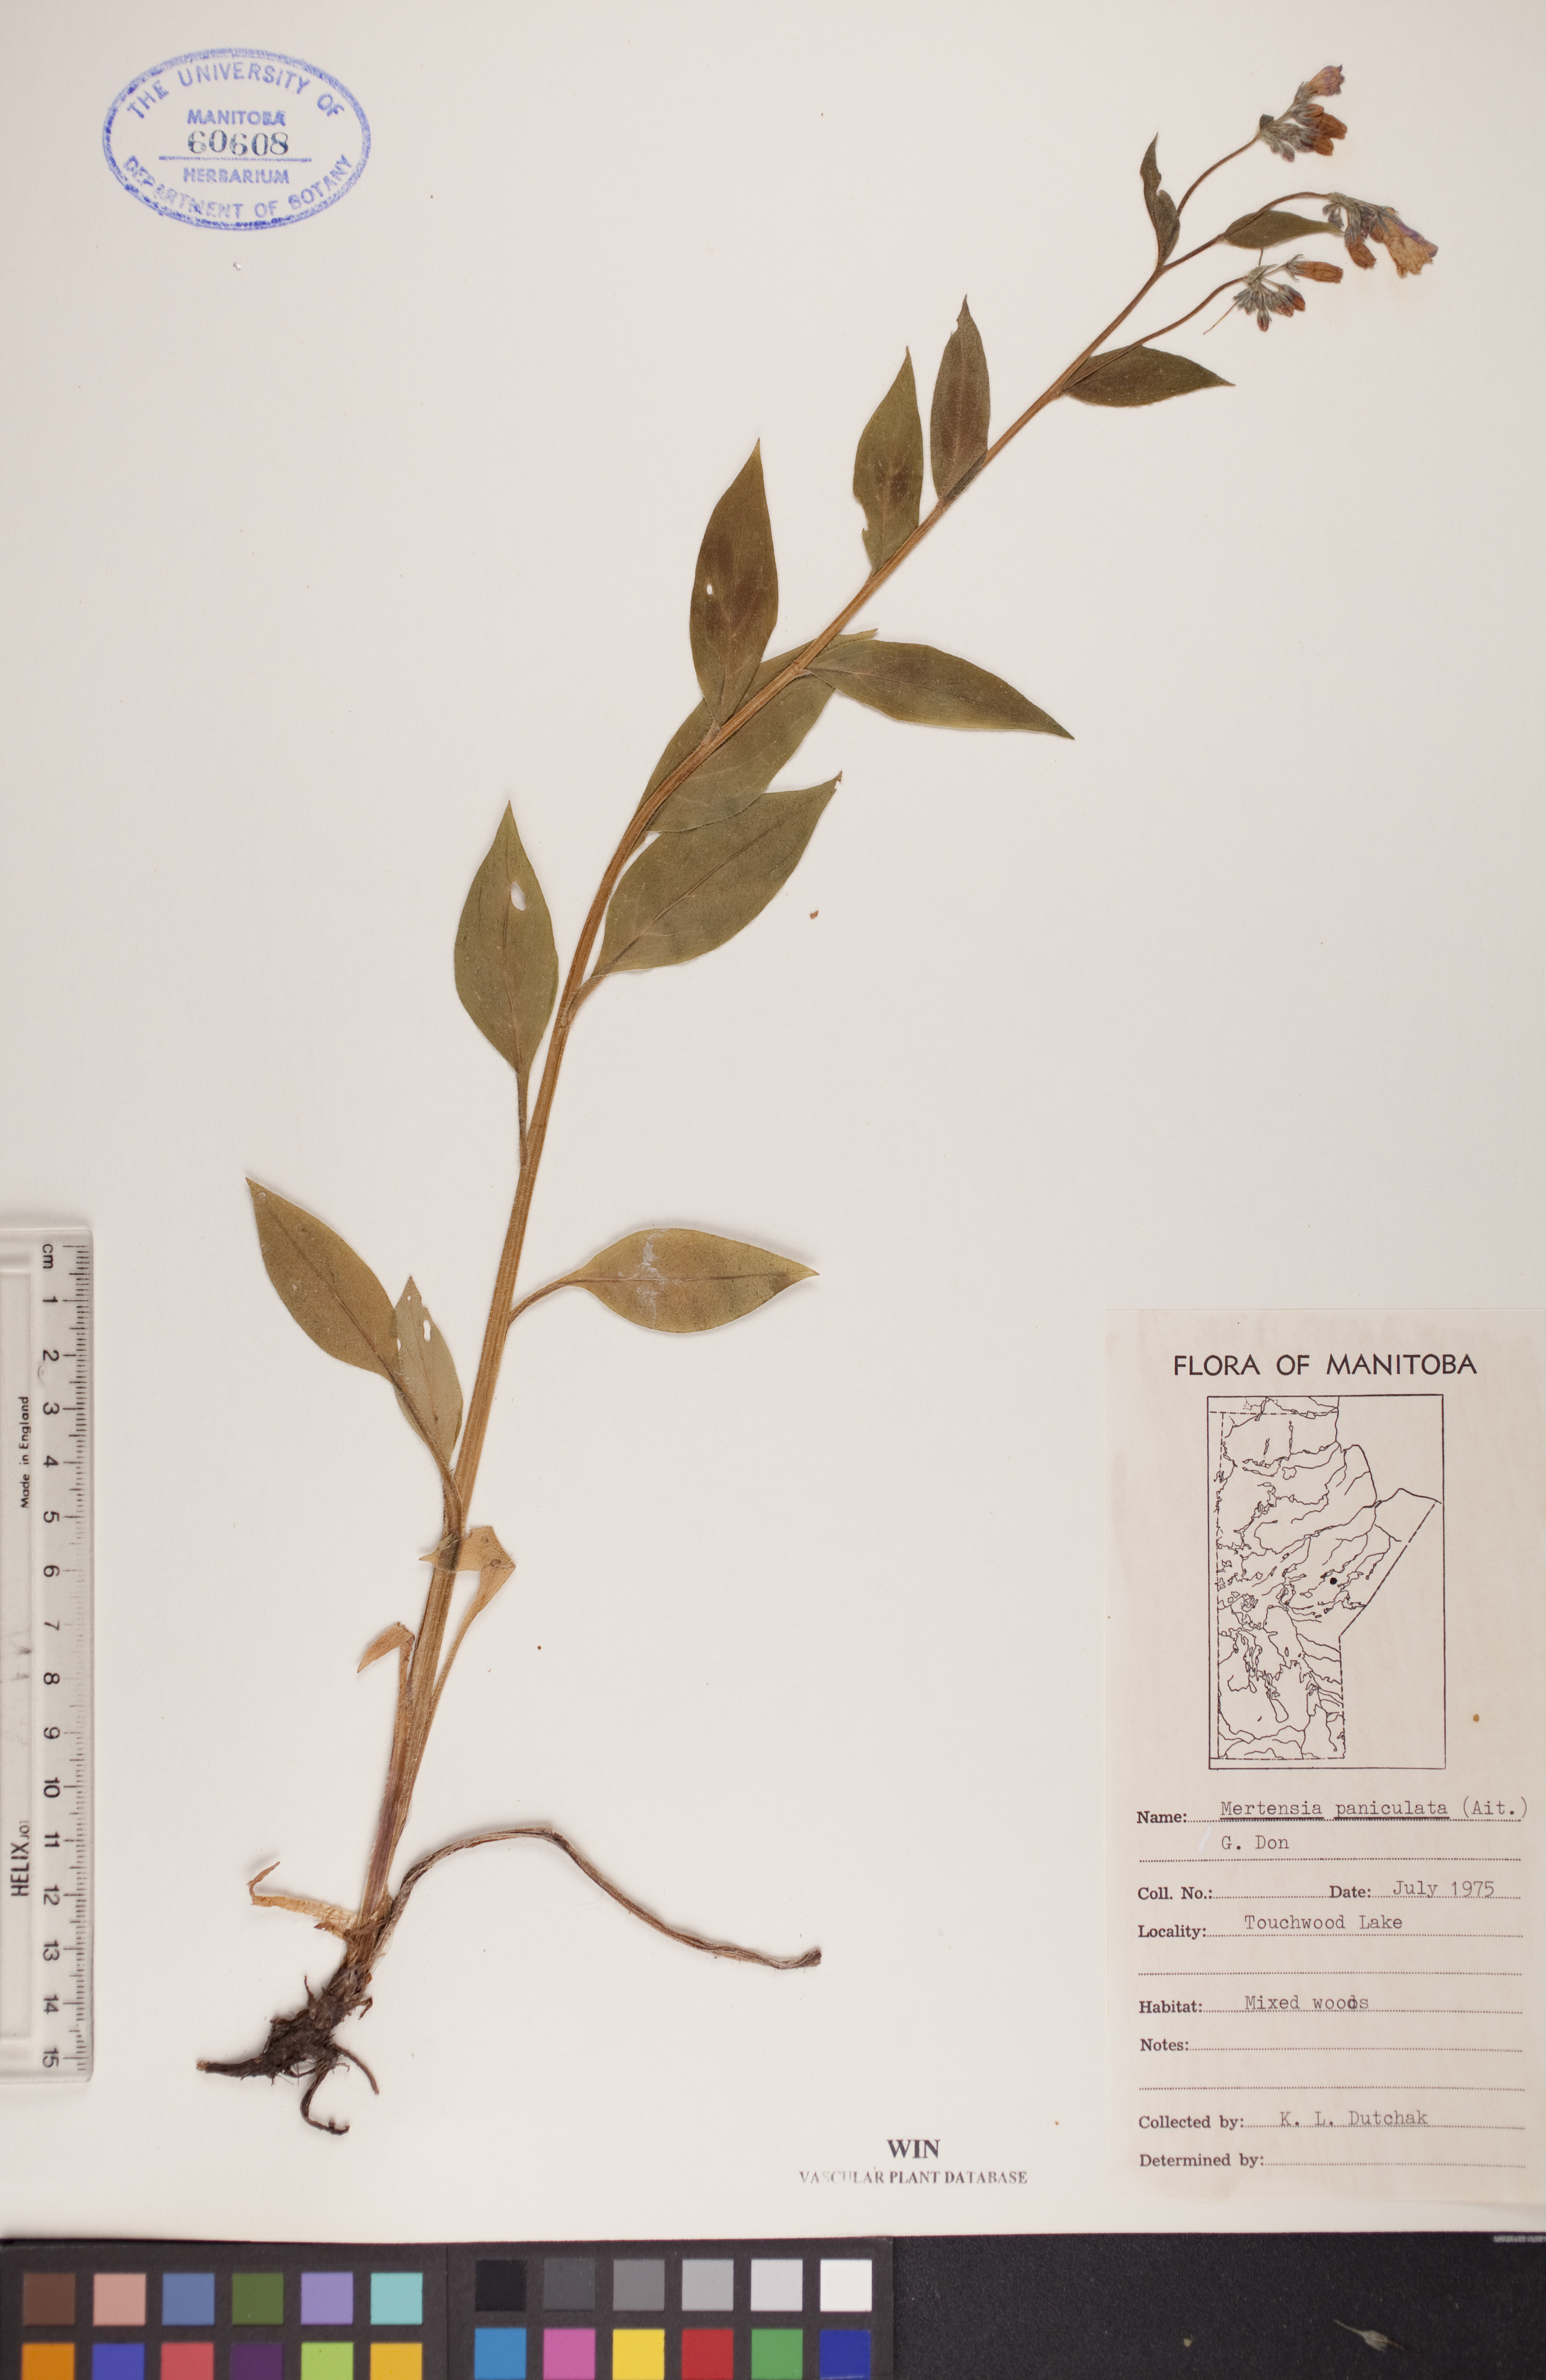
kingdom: Plantae
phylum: Tracheophyta
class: Magnoliopsida
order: Boraginales
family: Boraginaceae
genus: Mertensia
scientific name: Mertensia paniculata
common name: Panicled bluebells
